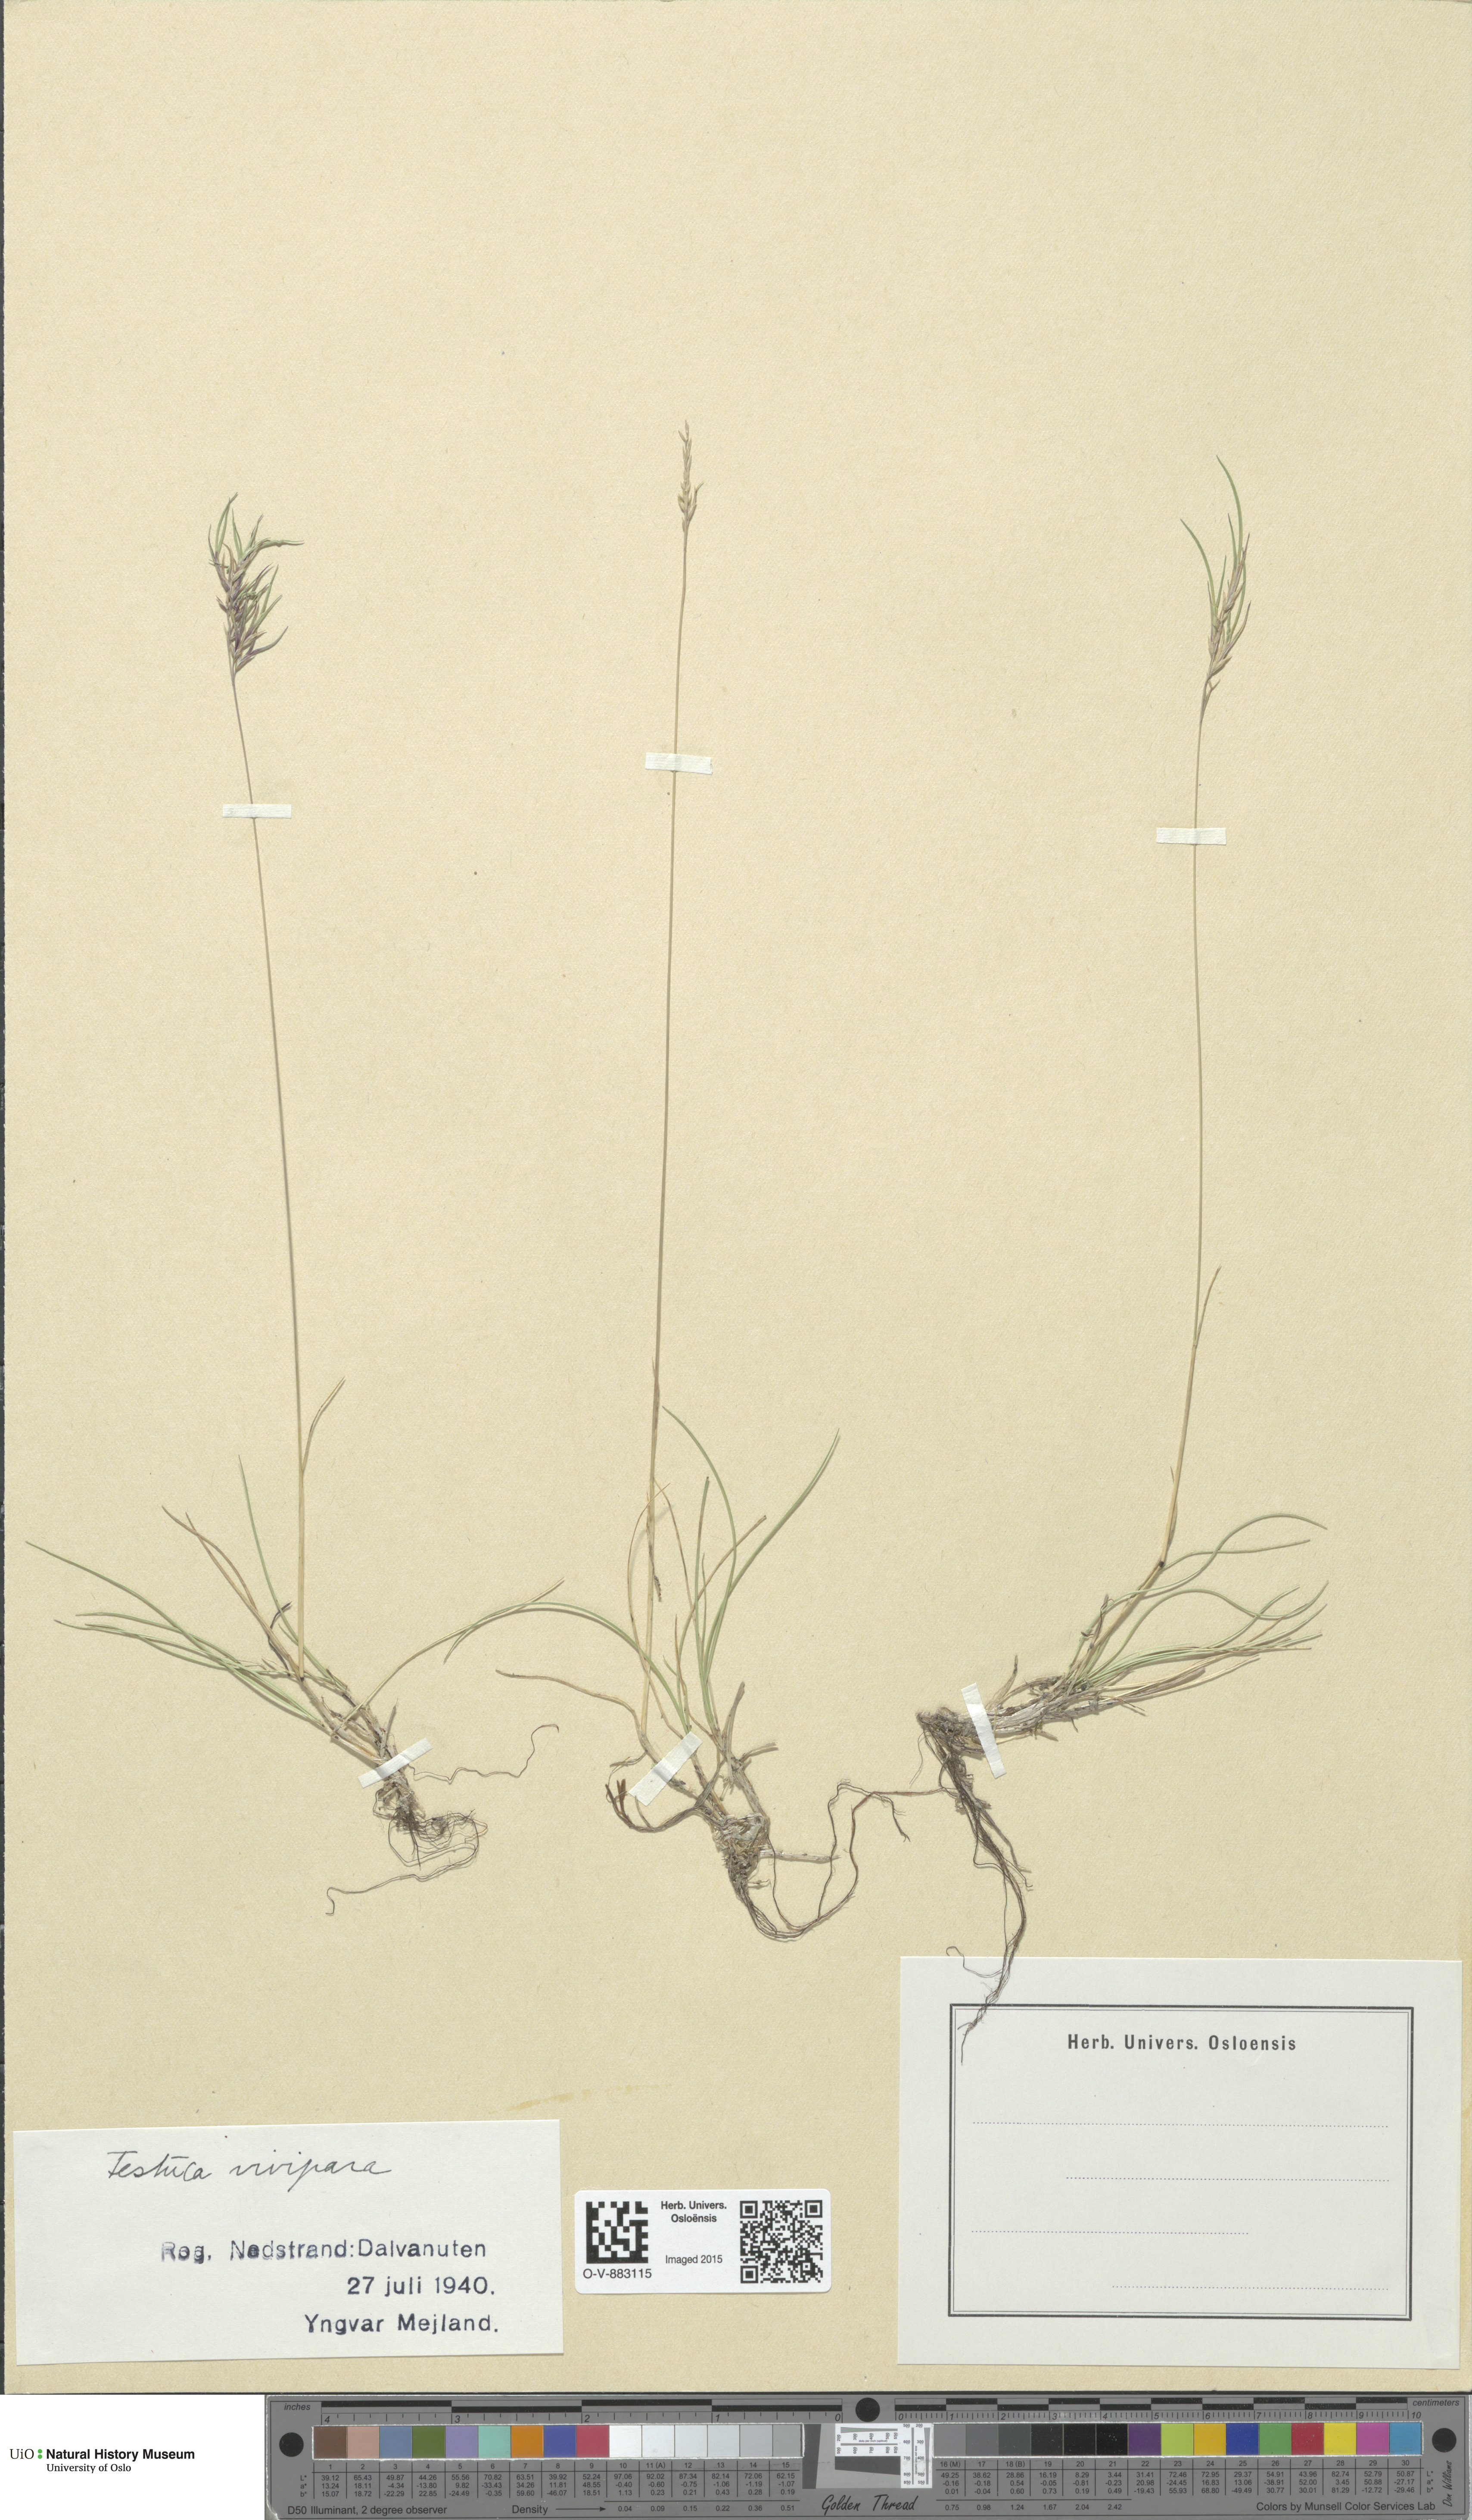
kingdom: Plantae
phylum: Tracheophyta
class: Liliopsida
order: Poales
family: Poaceae
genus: Festuca
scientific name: Festuca vivipara
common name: Viviparous sheep's-fescue
